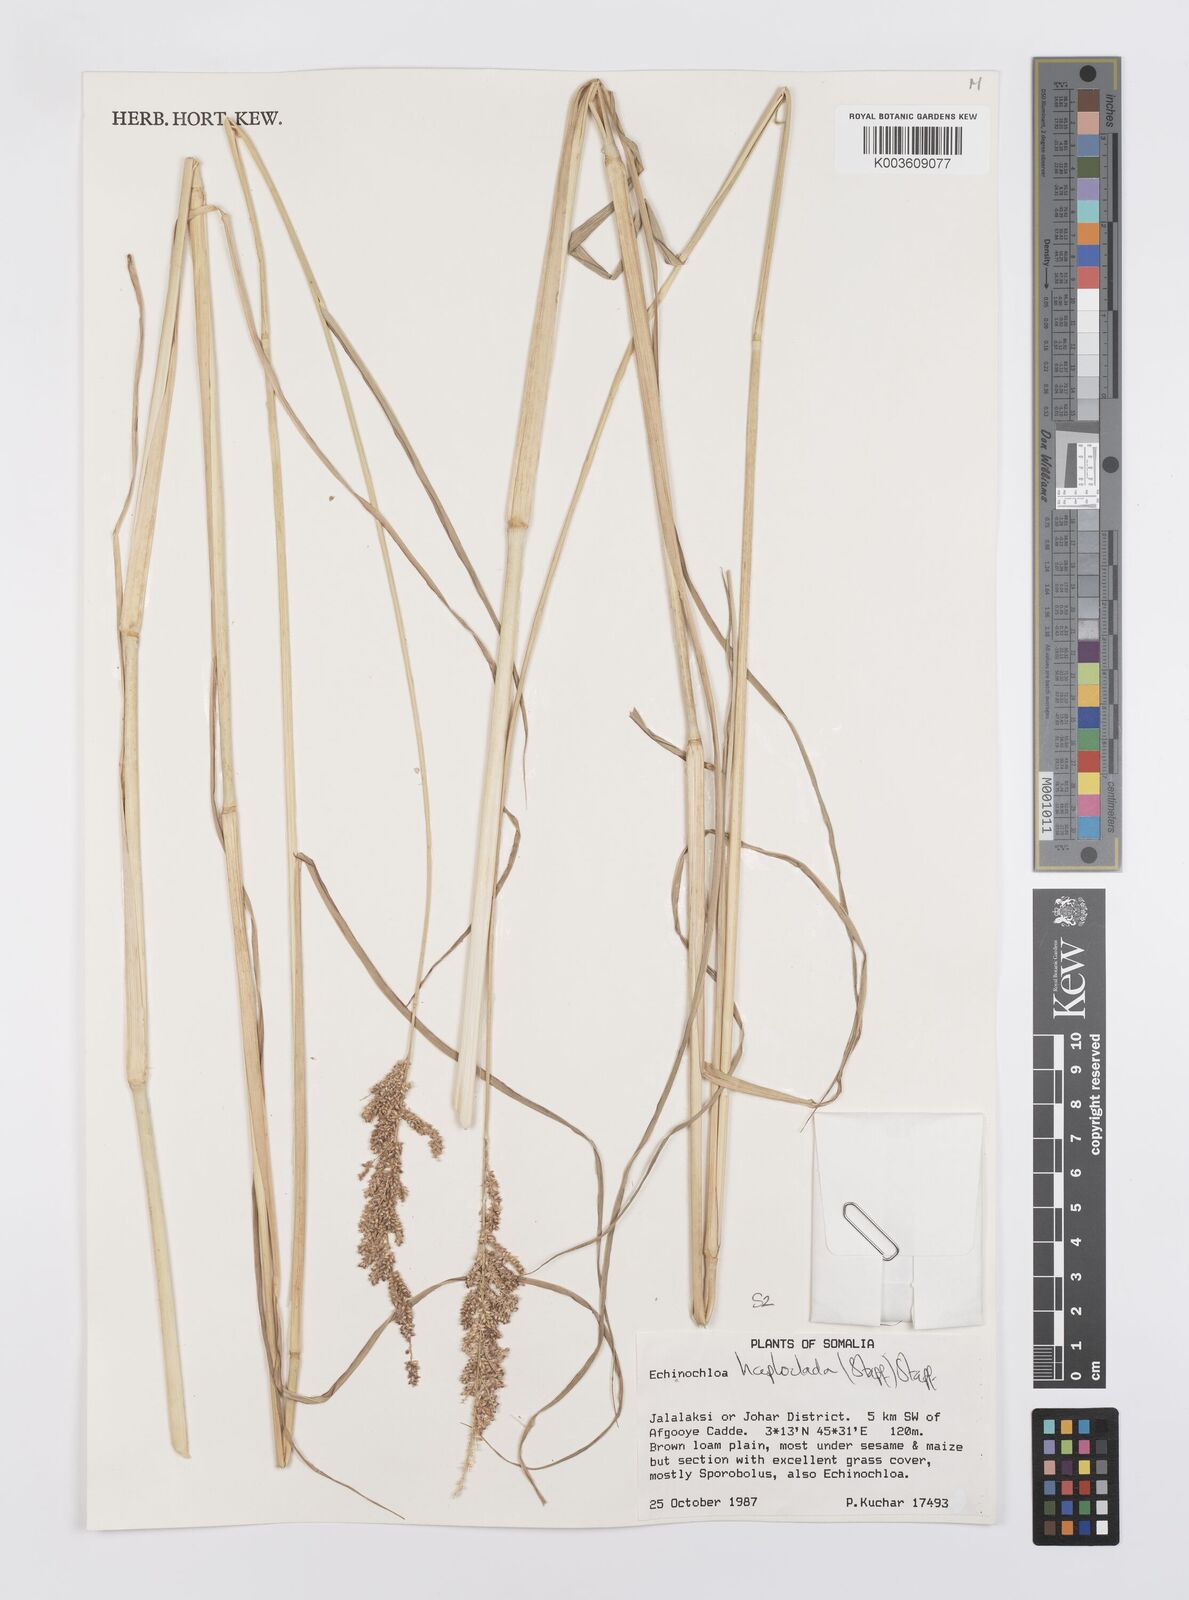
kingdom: Plantae
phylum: Tracheophyta
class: Liliopsida
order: Poales
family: Poaceae
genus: Echinochloa
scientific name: Echinochloa haploclada
